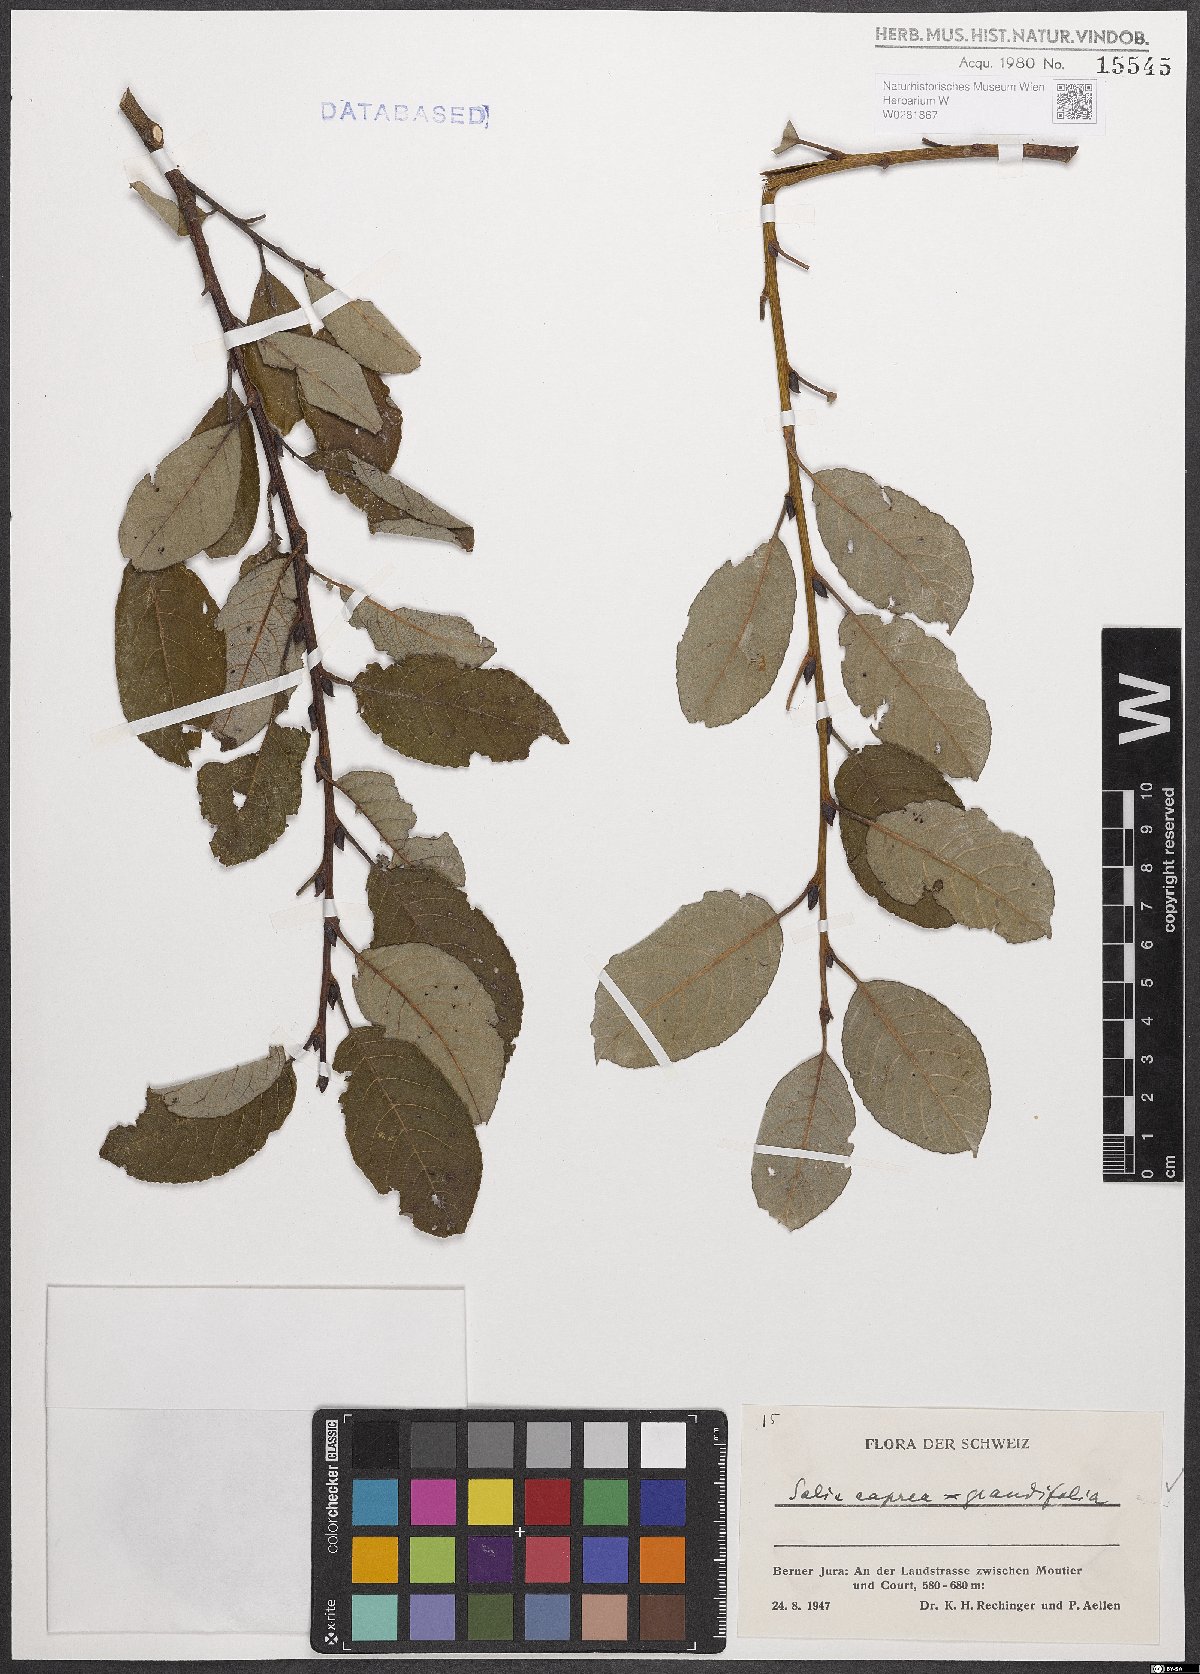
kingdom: Plantae
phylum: Tracheophyta
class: Magnoliopsida
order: Malpighiales
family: Salicaceae
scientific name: Salicaceae
